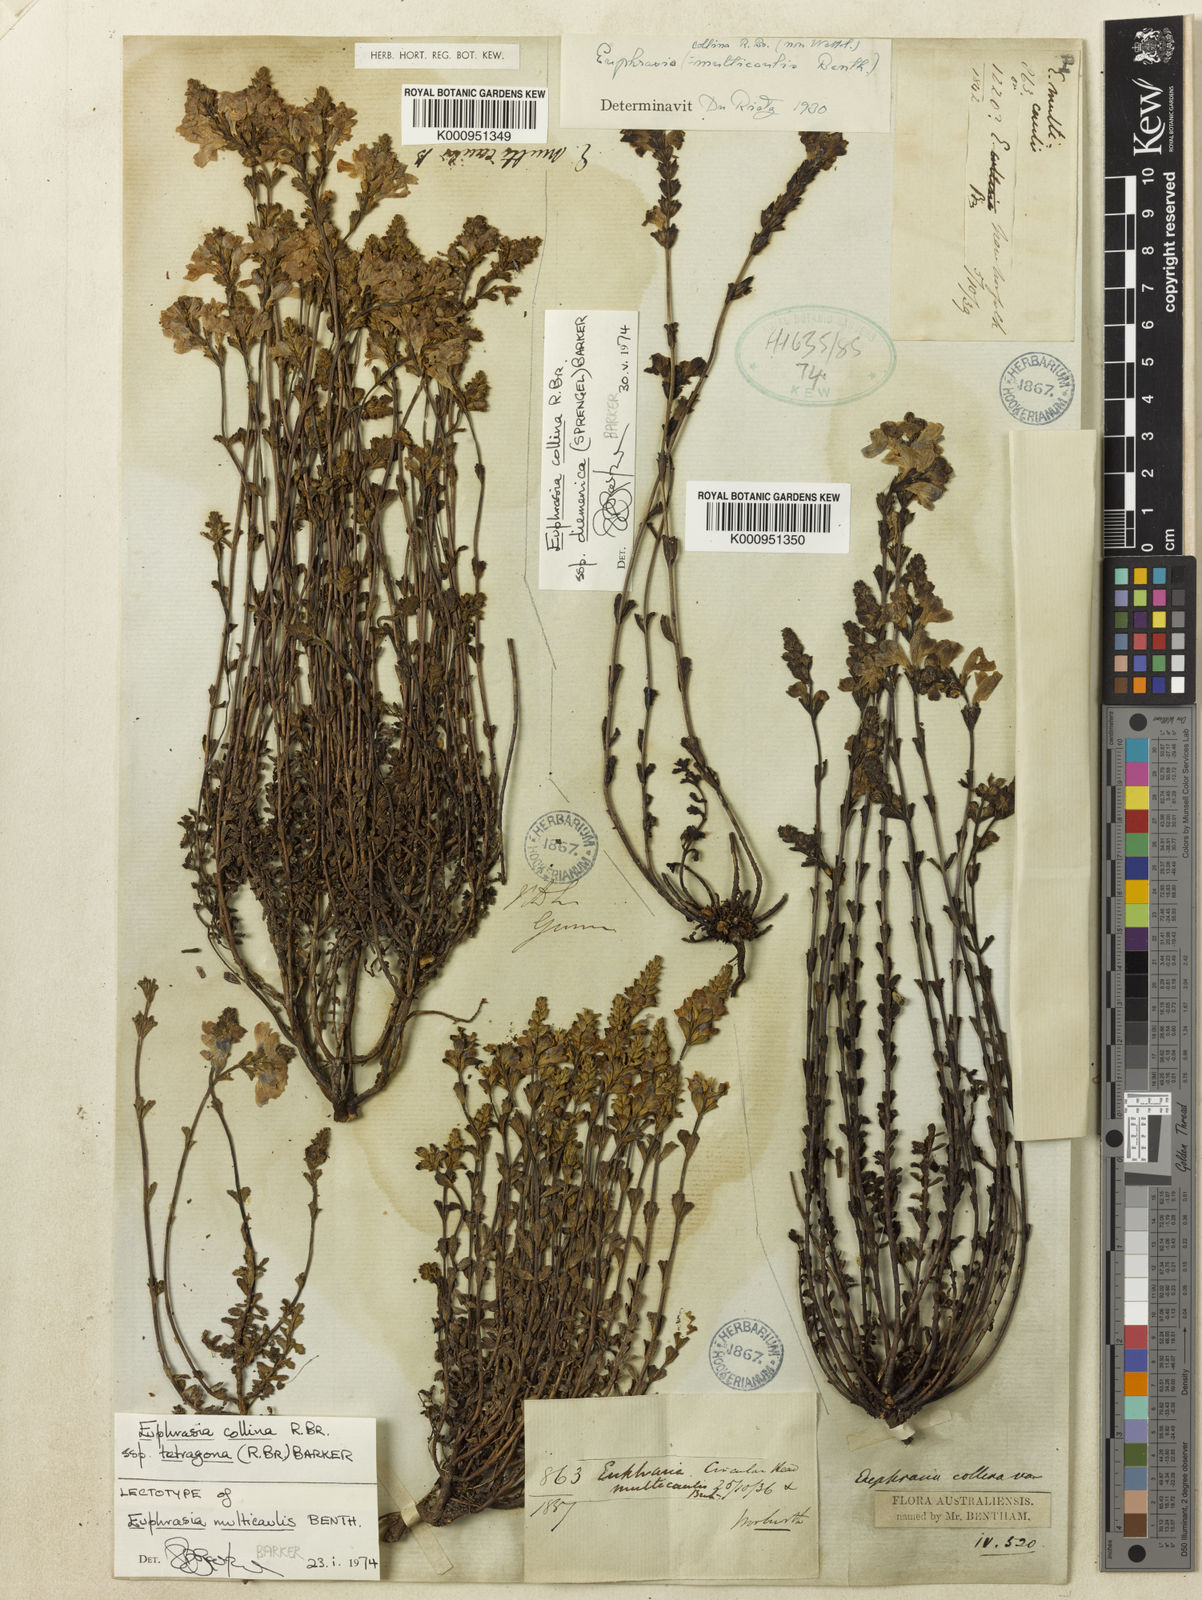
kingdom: Plantae
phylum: Tracheophyta
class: Magnoliopsida
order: Lamiales
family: Orobanchaceae
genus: Euphrasia
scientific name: Euphrasia collina
